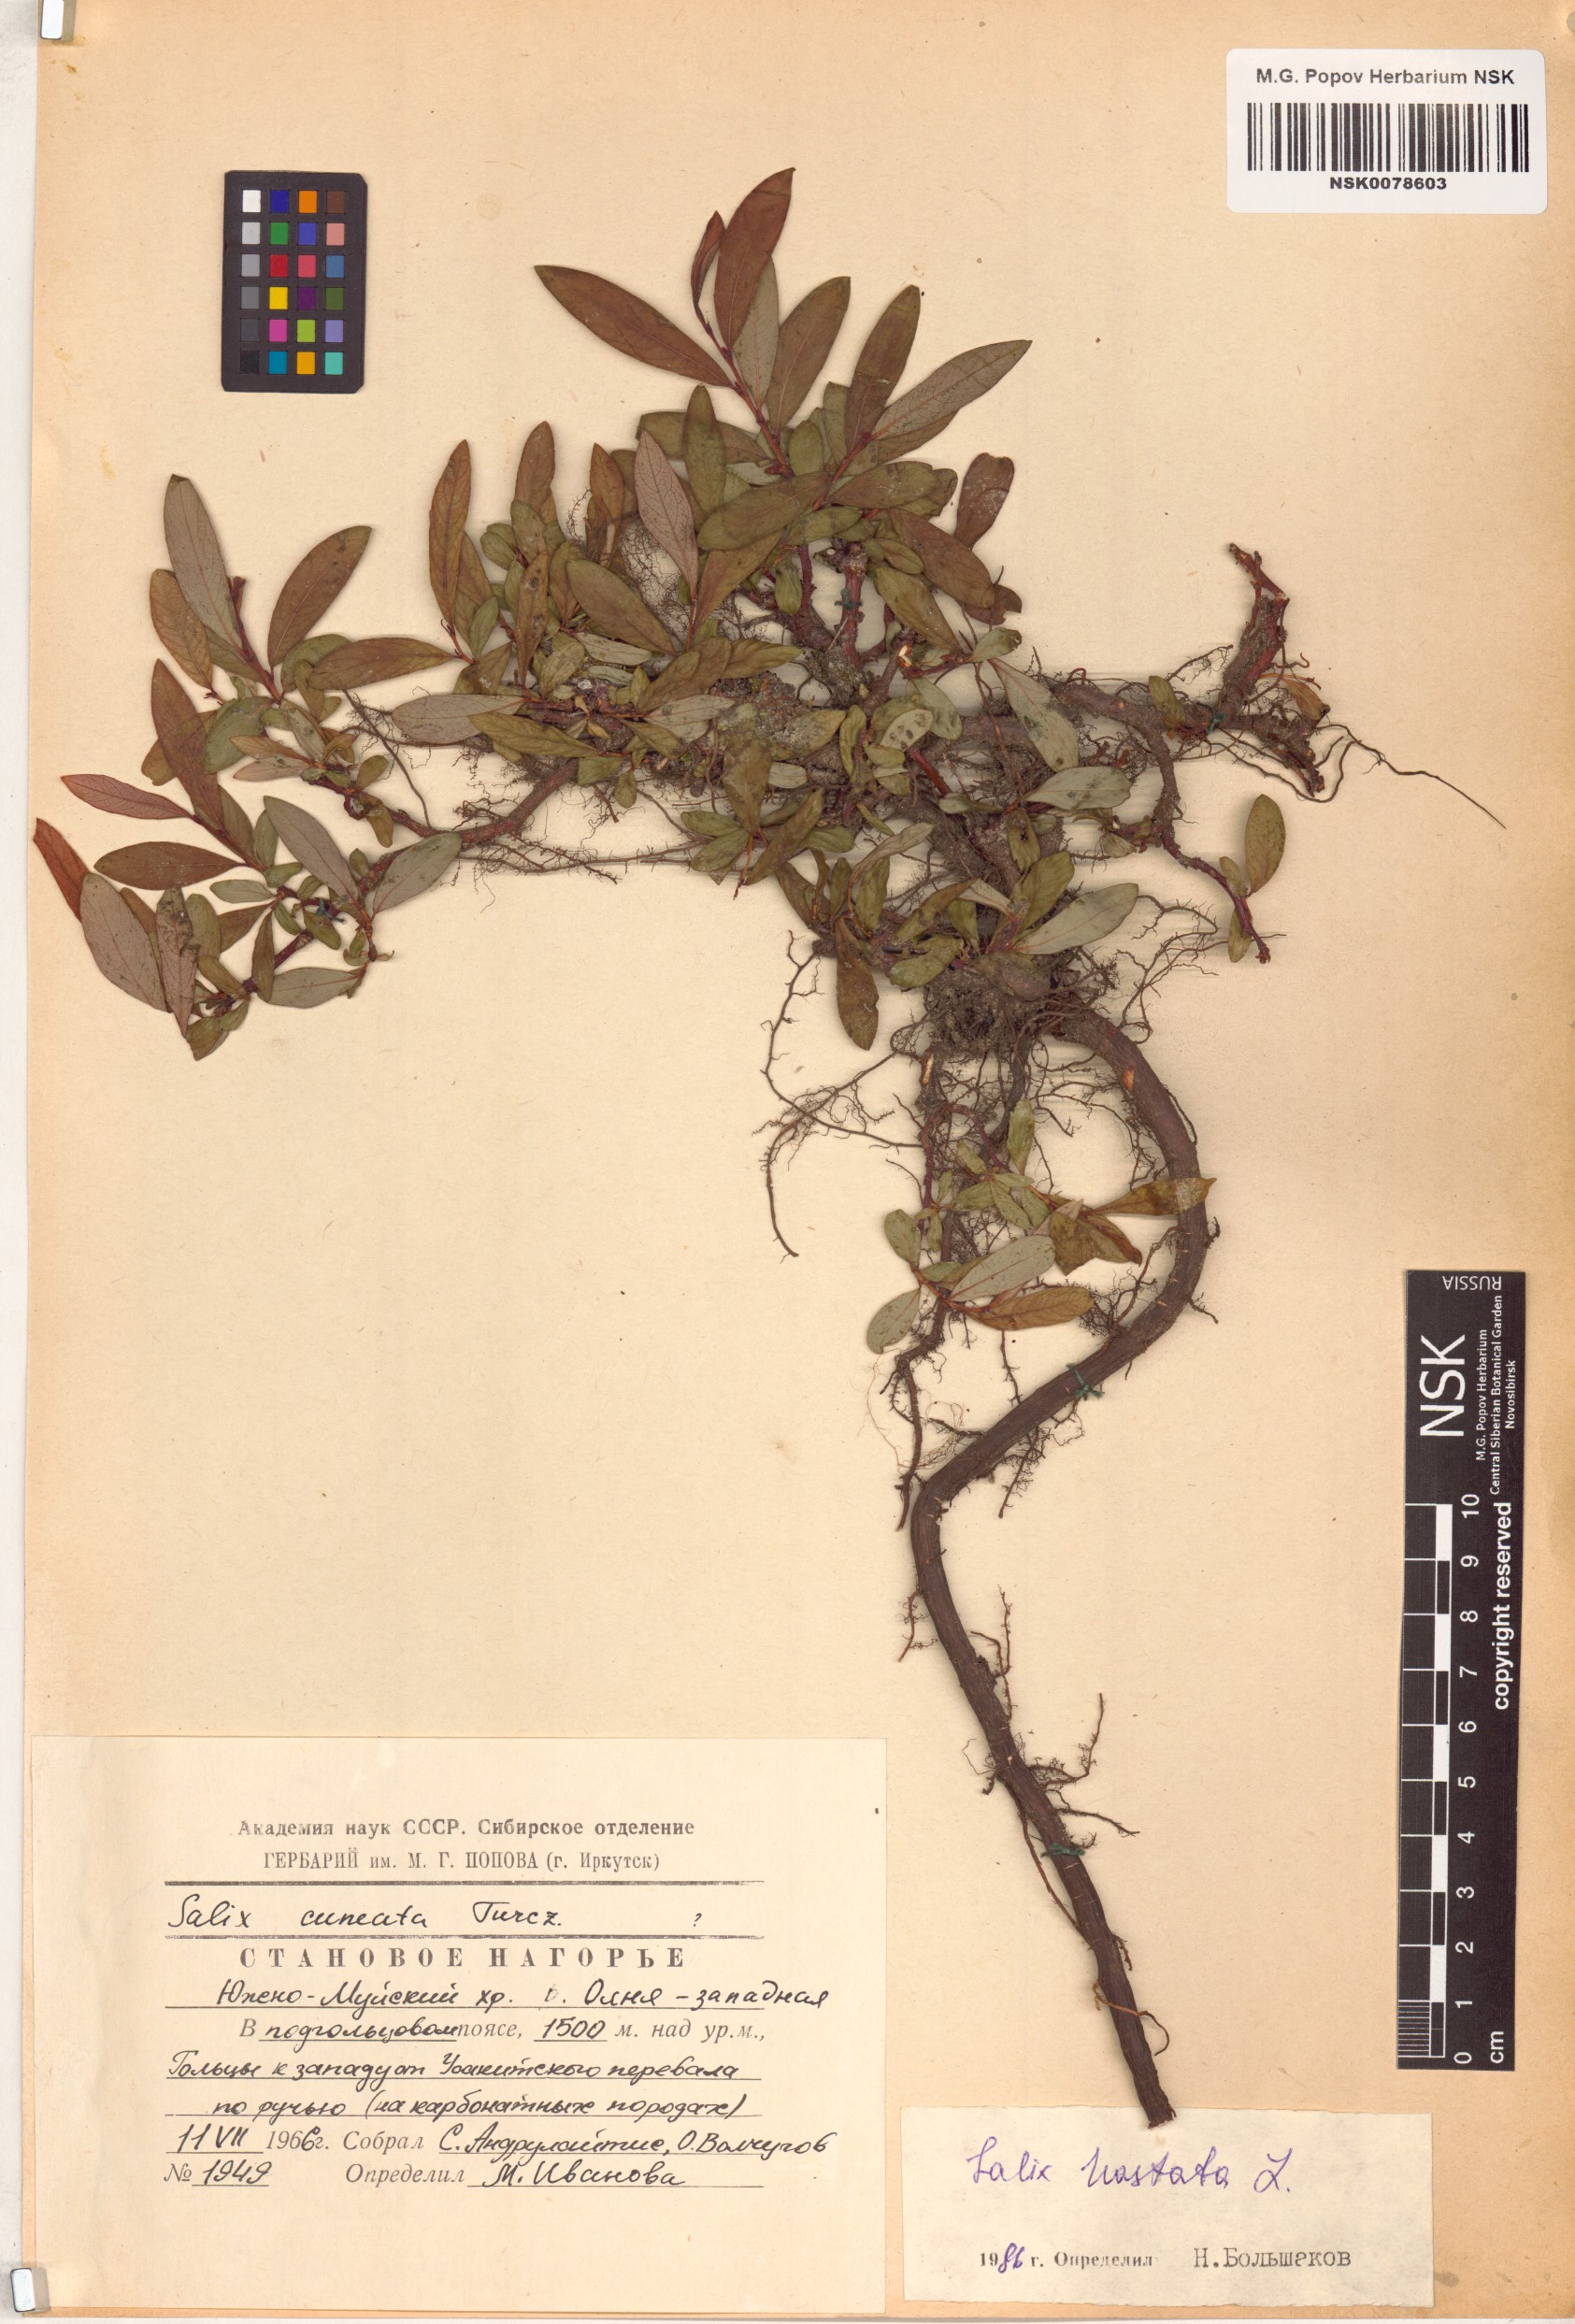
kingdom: Plantae
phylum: Tracheophyta
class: Magnoliopsida
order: Malpighiales
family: Salicaceae
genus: Salix
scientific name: Salix hastata
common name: Halberd willow
